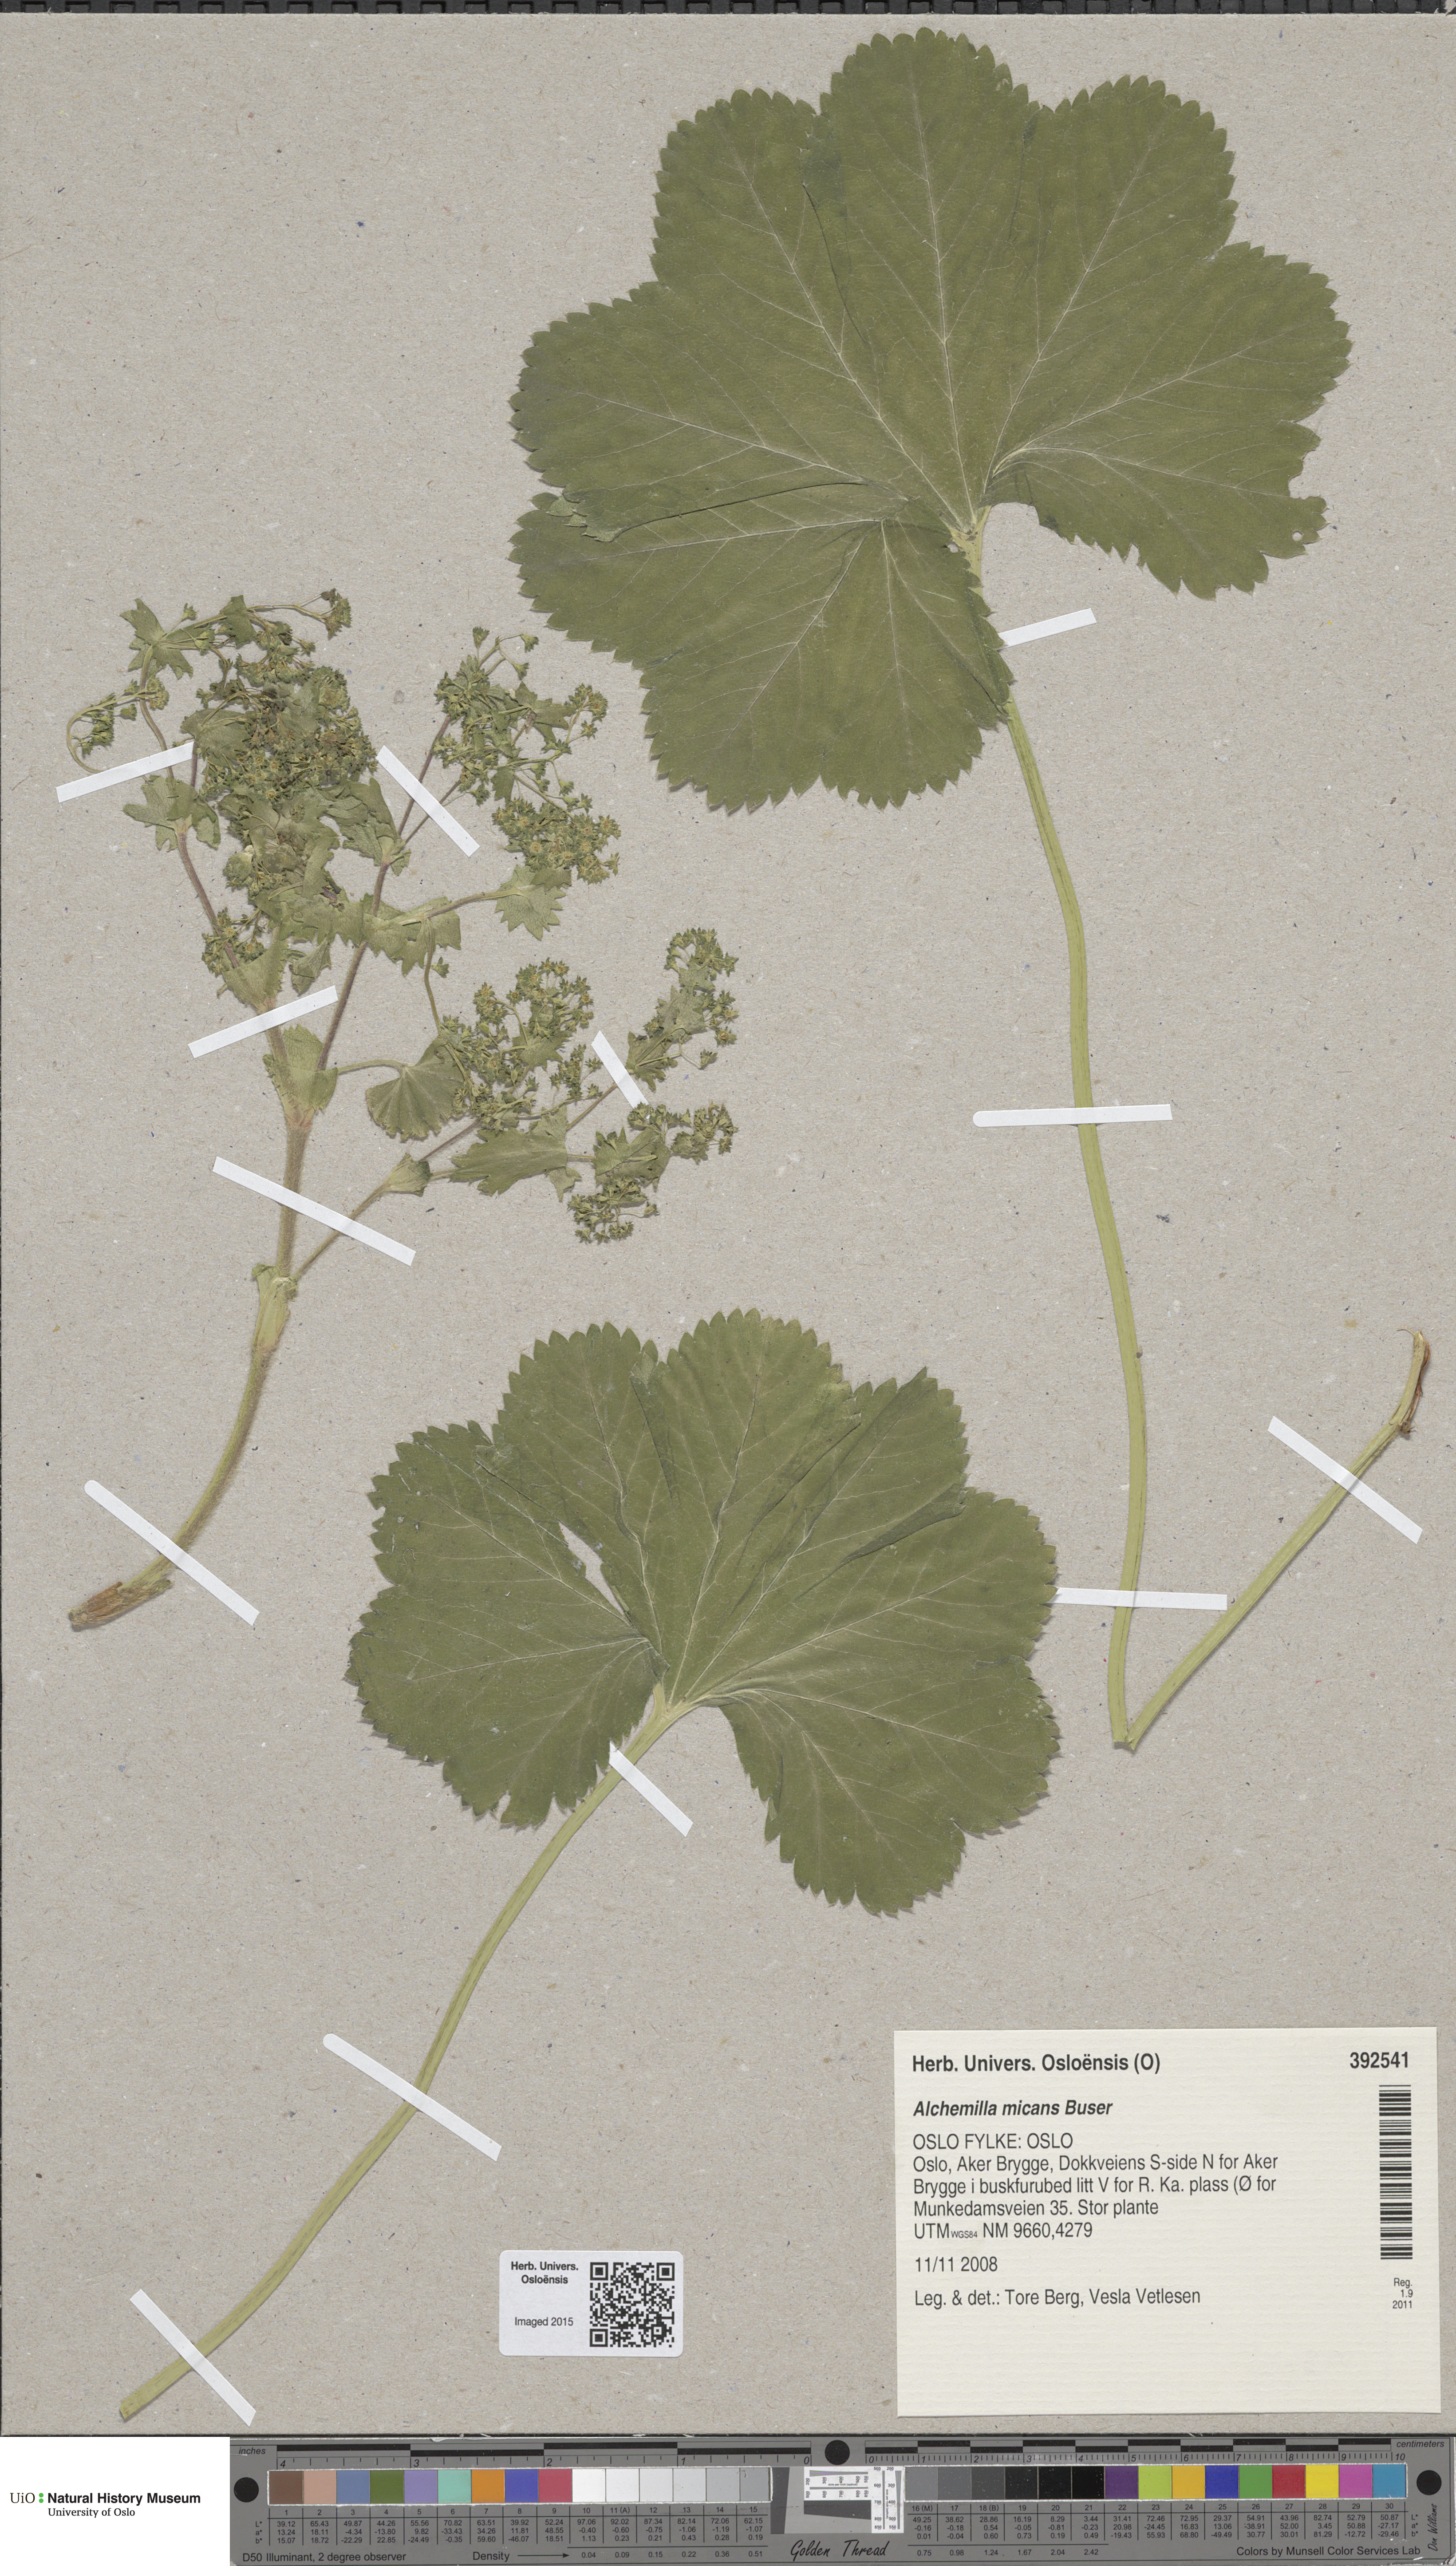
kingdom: Plantae
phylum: Tracheophyta
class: Magnoliopsida
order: Rosales
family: Rosaceae
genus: Alchemilla
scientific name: Alchemilla mollis
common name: Lady's-mantle
